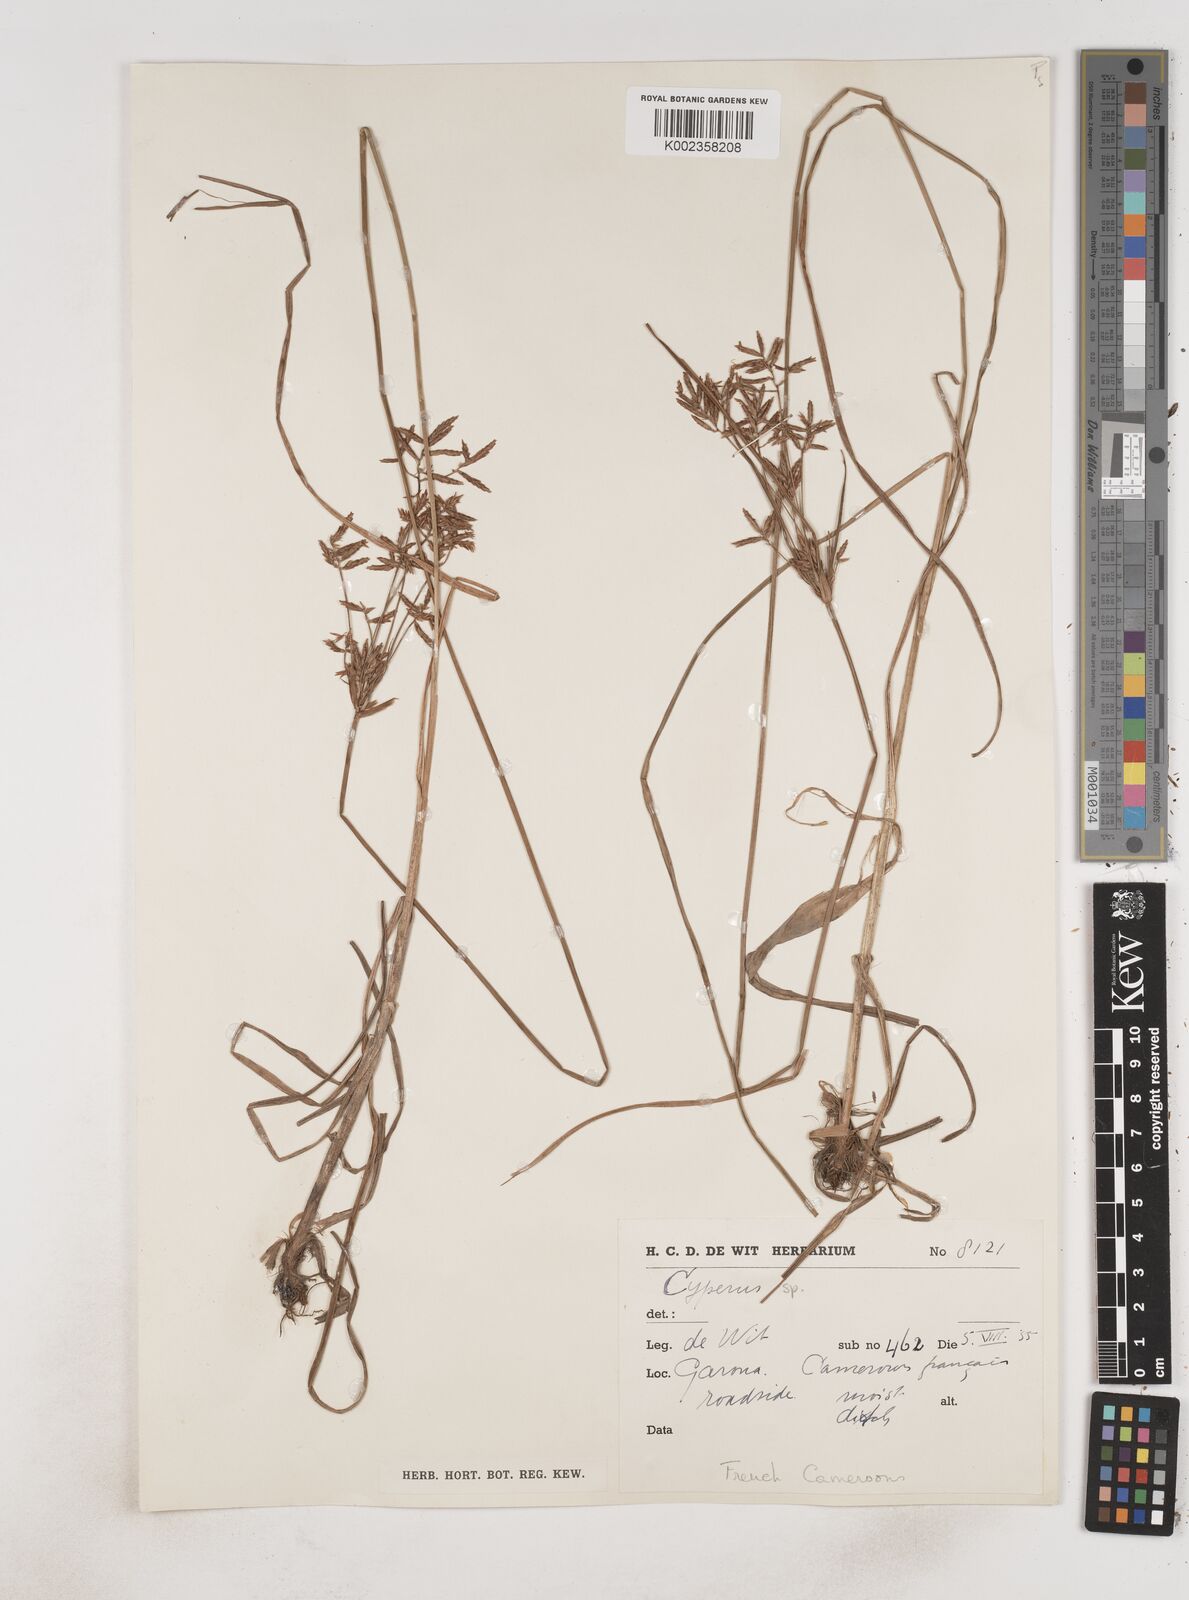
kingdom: Plantae
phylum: Tracheophyta
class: Liliopsida
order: Poales
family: Cyperaceae
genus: Cyperus
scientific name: Cyperus longus
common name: Galingale
